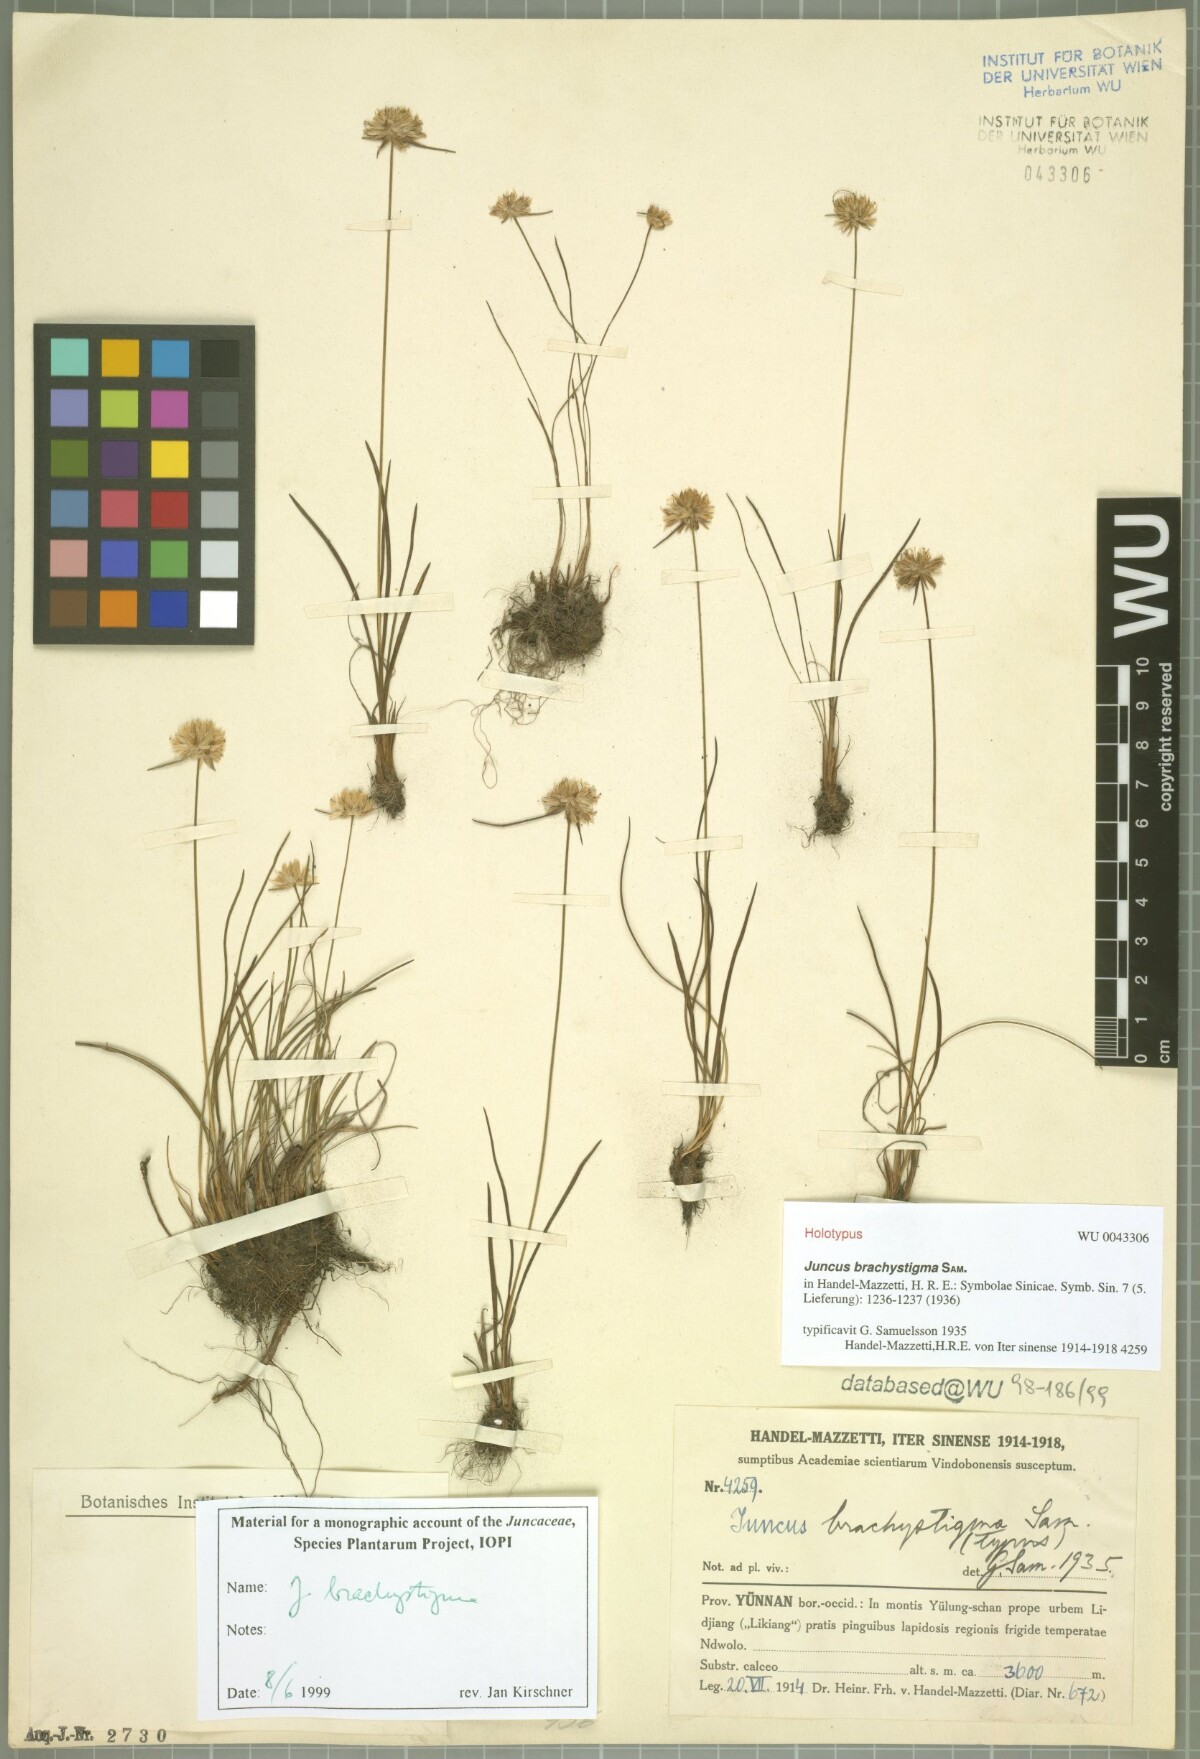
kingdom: Plantae
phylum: Tracheophyta
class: Liliopsida
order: Poales
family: Juncaceae
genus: Juncus
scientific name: Juncus brachystigma
